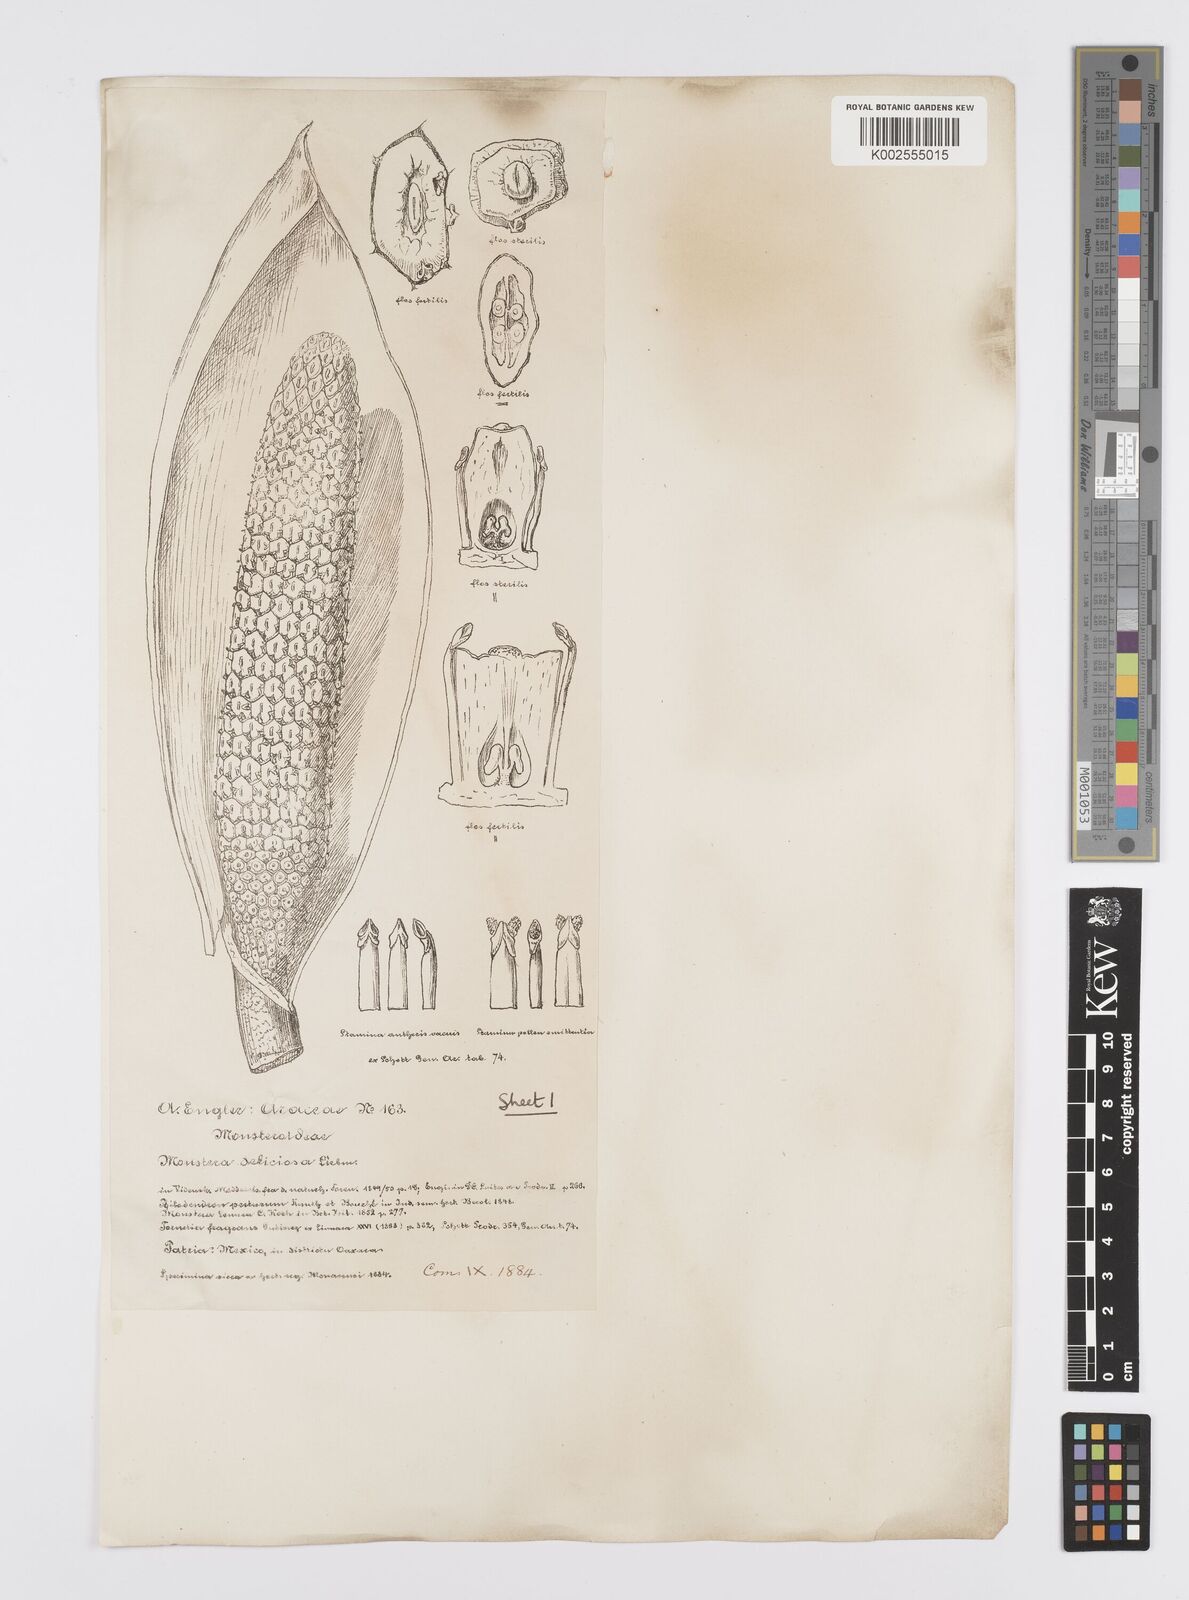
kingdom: Plantae
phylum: Tracheophyta
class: Liliopsida
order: Alismatales
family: Araceae
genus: Monstera
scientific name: Monstera deliciosa
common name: Cut-leaf-philodendron
